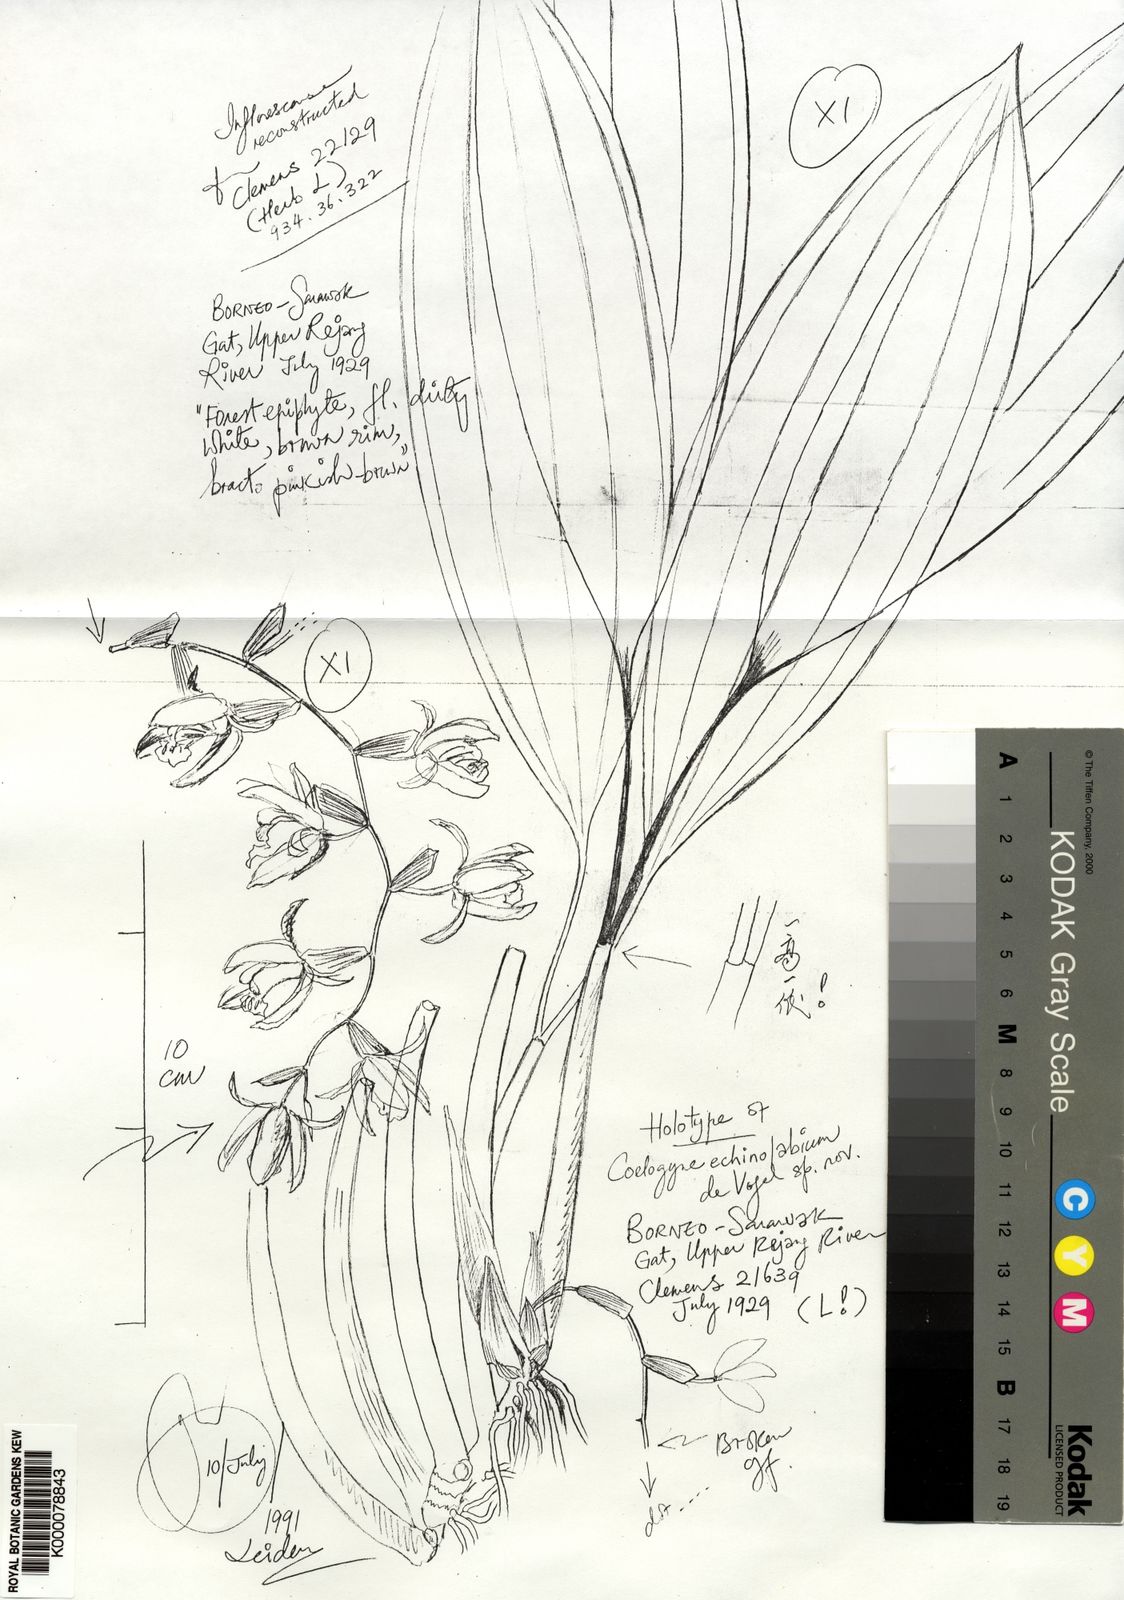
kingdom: Plantae
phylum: Tracheophyta
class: Liliopsida
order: Asparagales
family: Orchidaceae
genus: Coelogyne
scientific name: Coelogyne echinolabium
